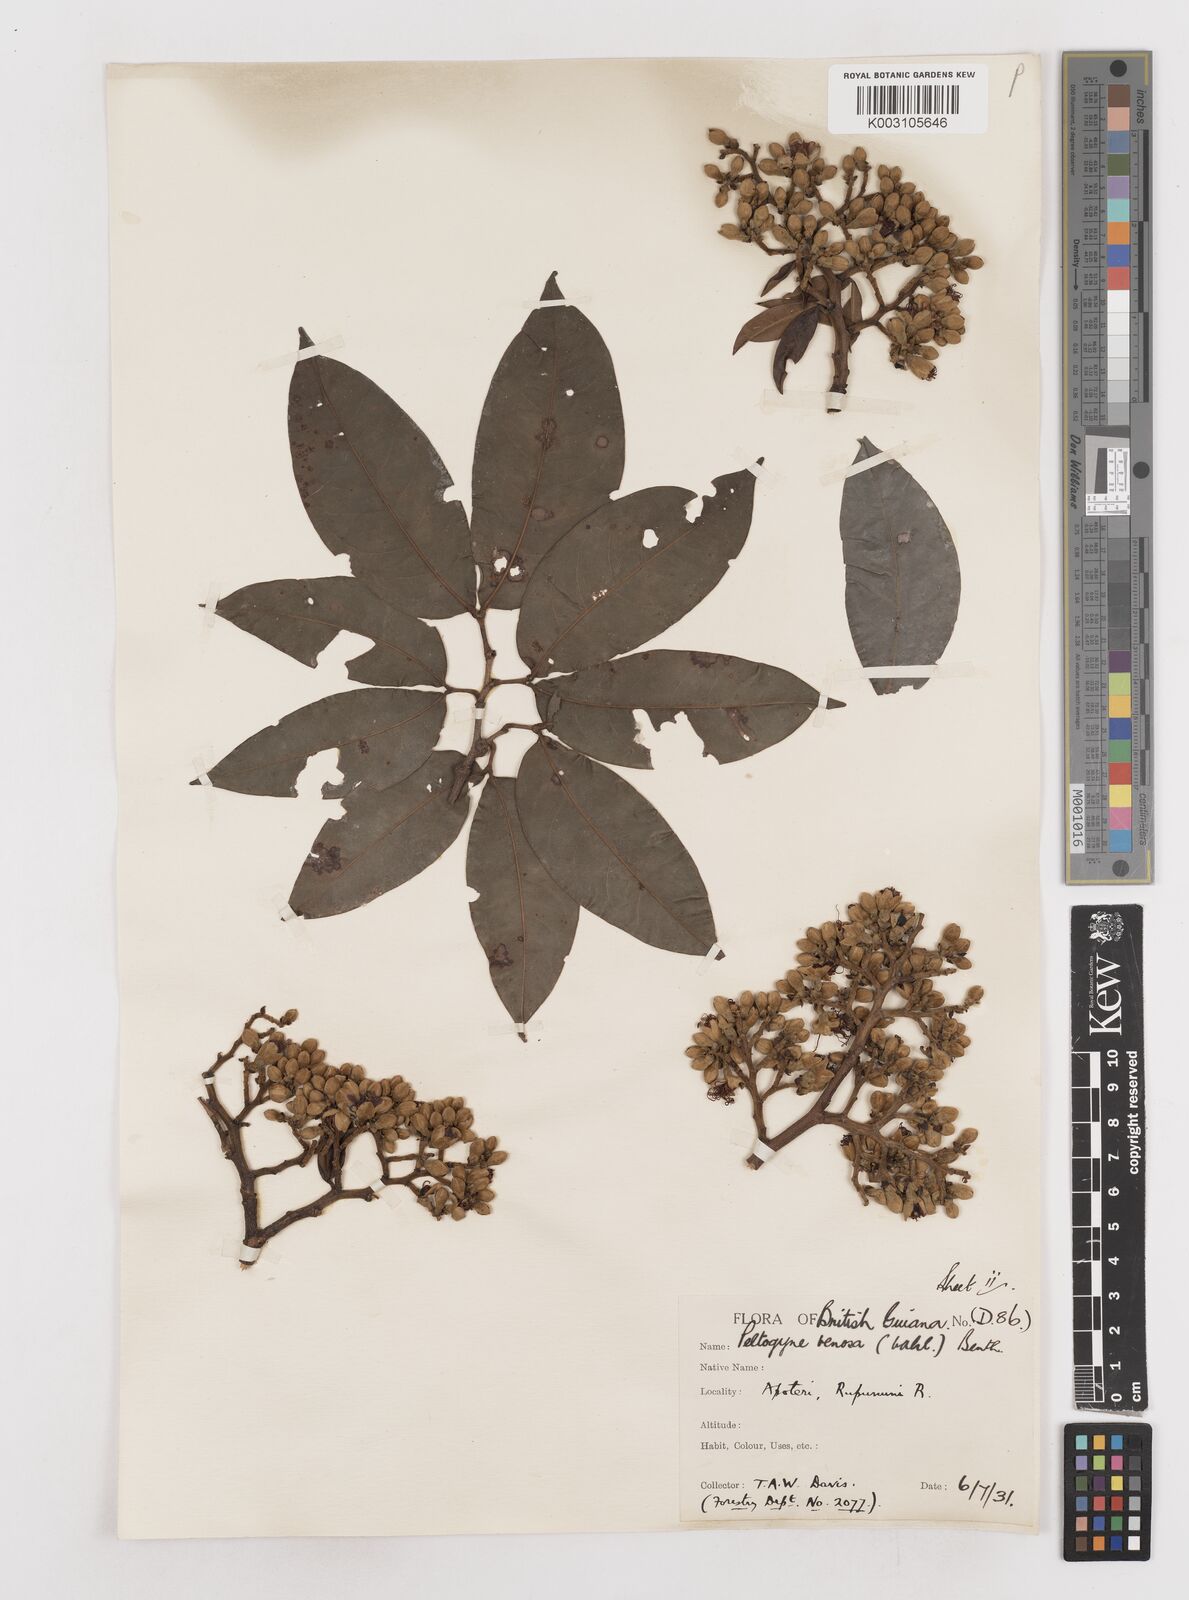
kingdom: Plantae
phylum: Tracheophyta
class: Magnoliopsida
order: Fabales
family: Fabaceae
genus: Peltogyne
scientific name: Peltogyne venosa
